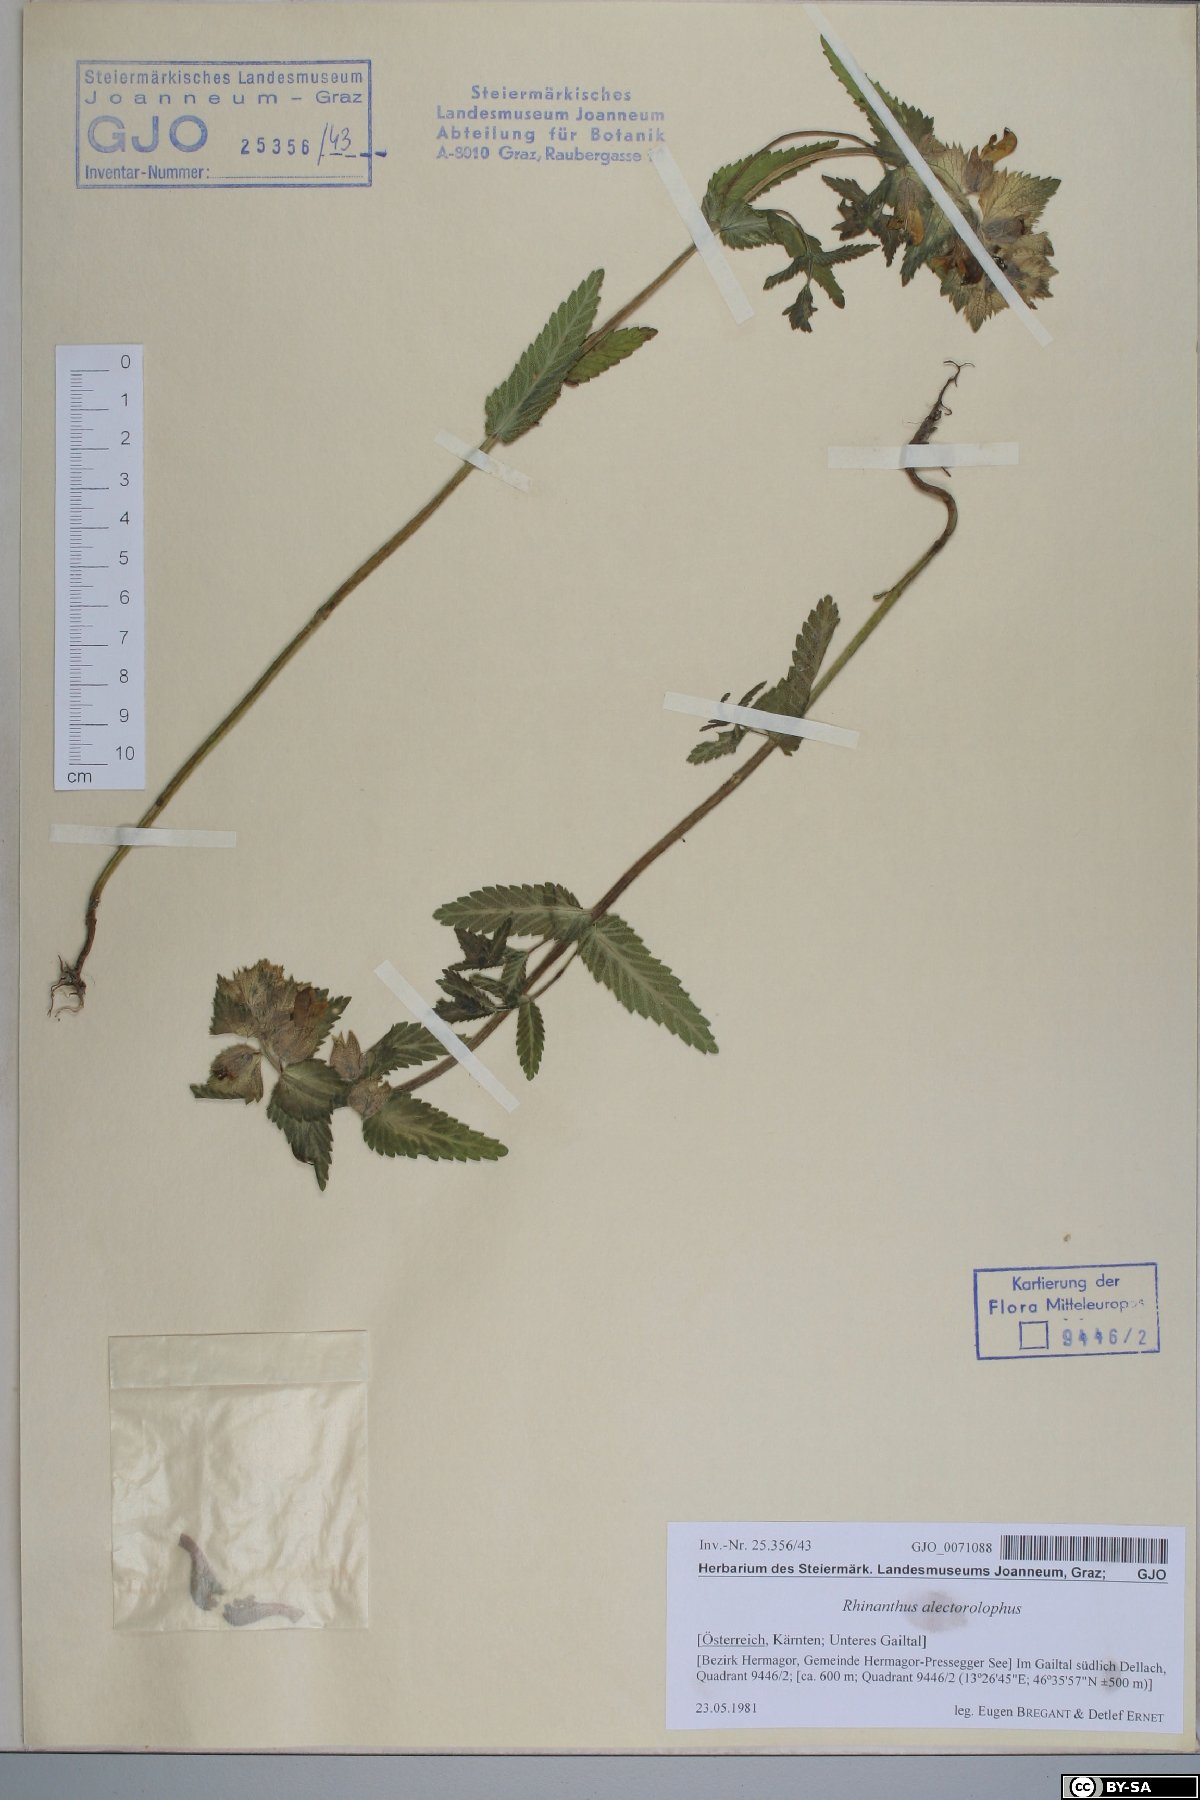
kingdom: Plantae
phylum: Tracheophyta
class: Magnoliopsida
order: Lamiales
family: Orobanchaceae
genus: Rhinanthus
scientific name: Rhinanthus alectorolophus
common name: Greater yellow-rattle
